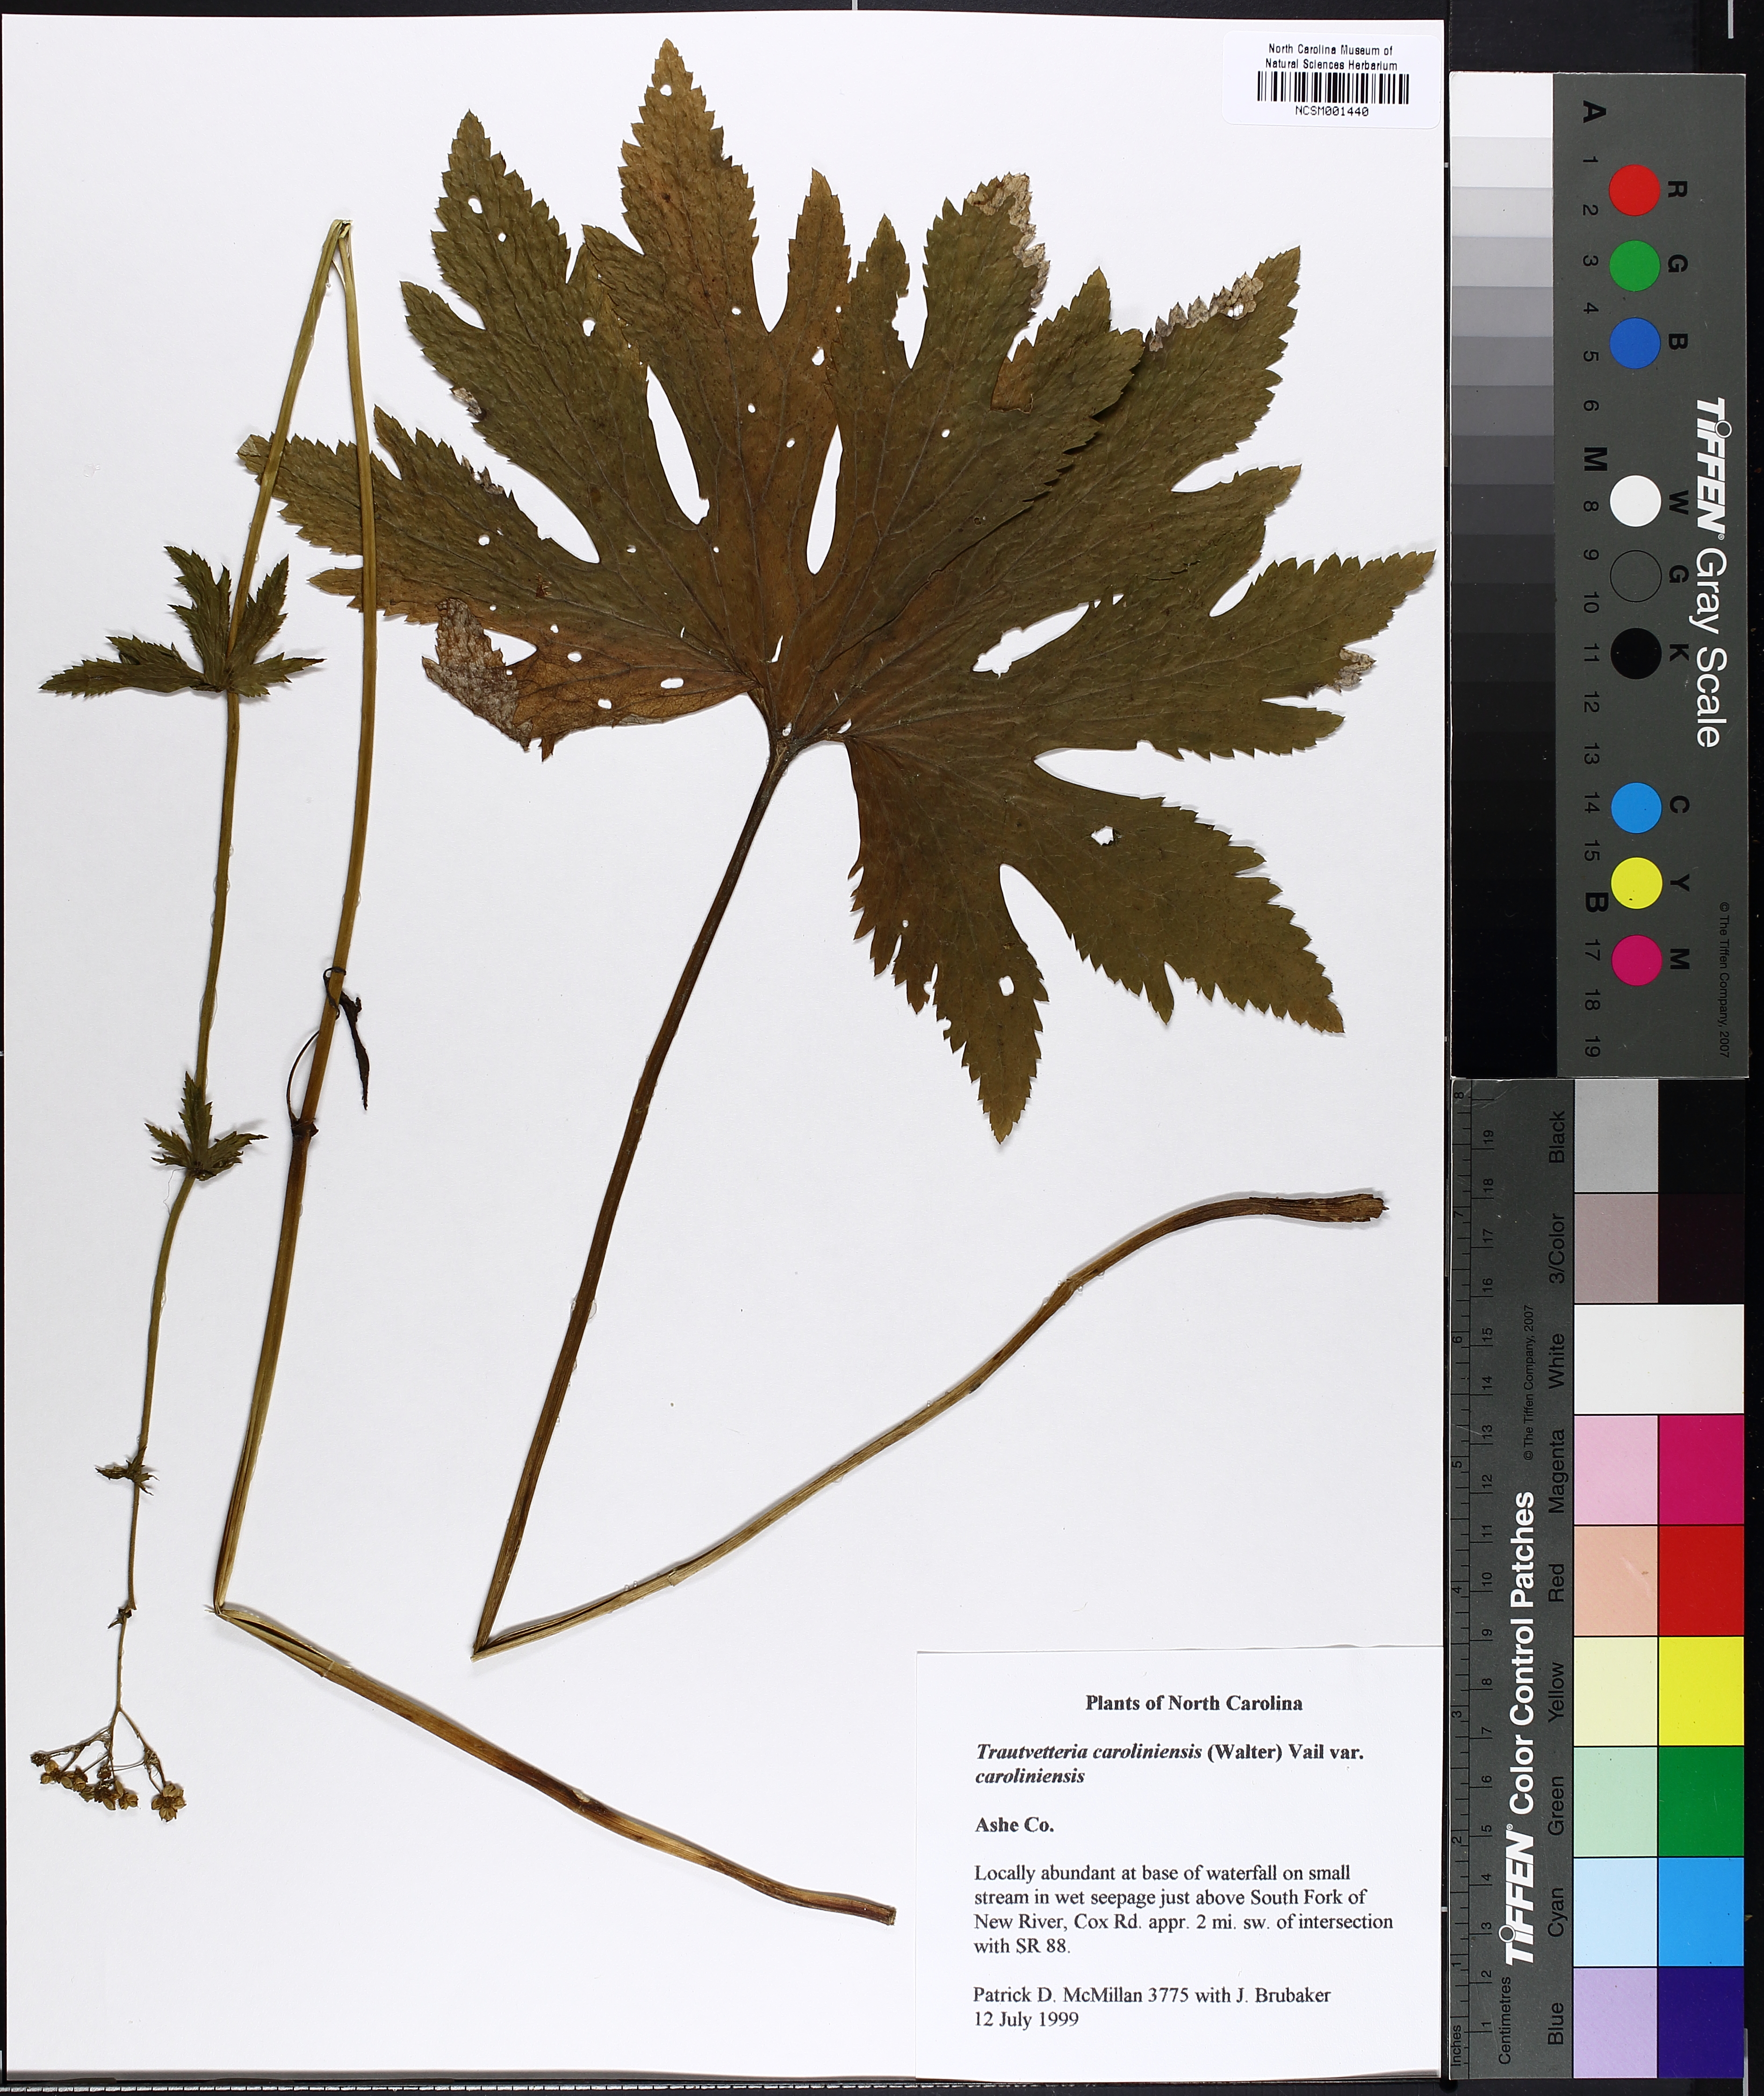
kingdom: Plantae
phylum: Tracheophyta
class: Magnoliopsida
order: Ranunculales
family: Ranunculaceae
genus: Trautvetteria
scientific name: Trautvetteria carolinensis
